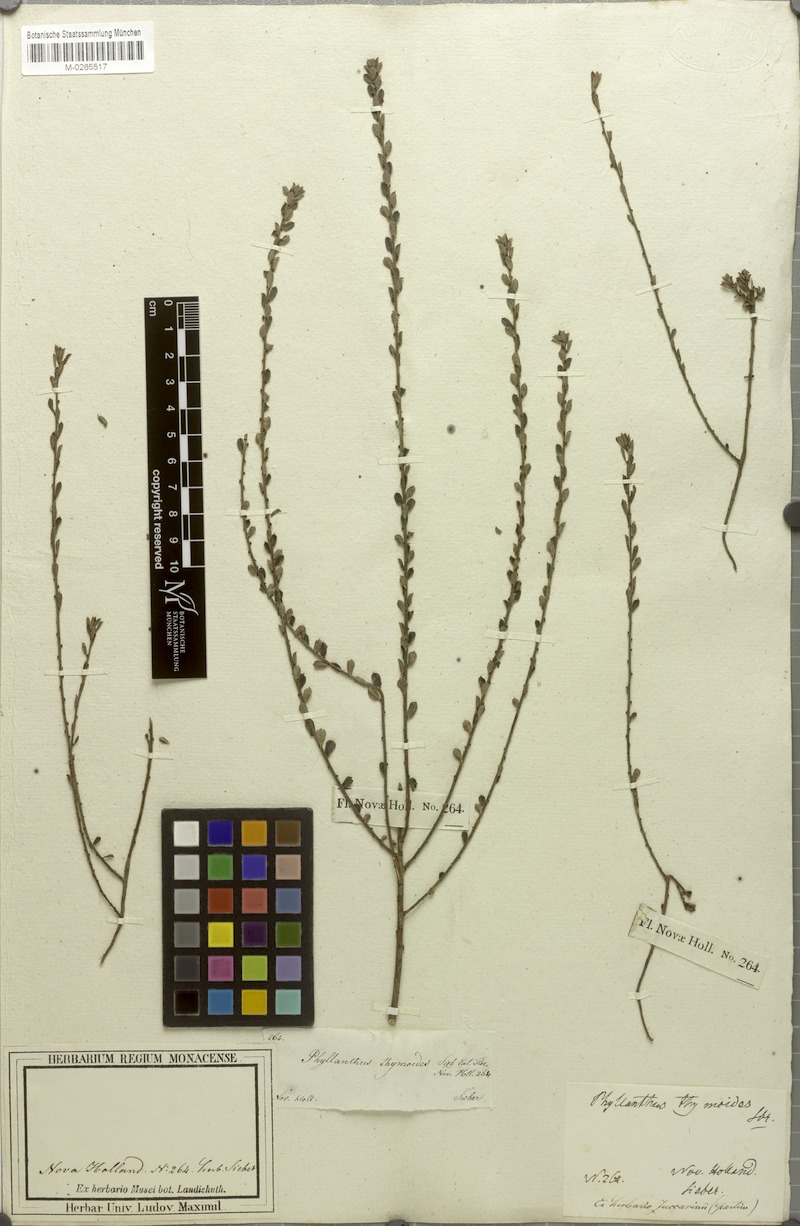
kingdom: Plantae
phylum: Tracheophyta
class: Magnoliopsida
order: Malpighiales
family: Phyllanthaceae
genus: Phyllanthus
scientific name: Phyllanthus hirtellus
